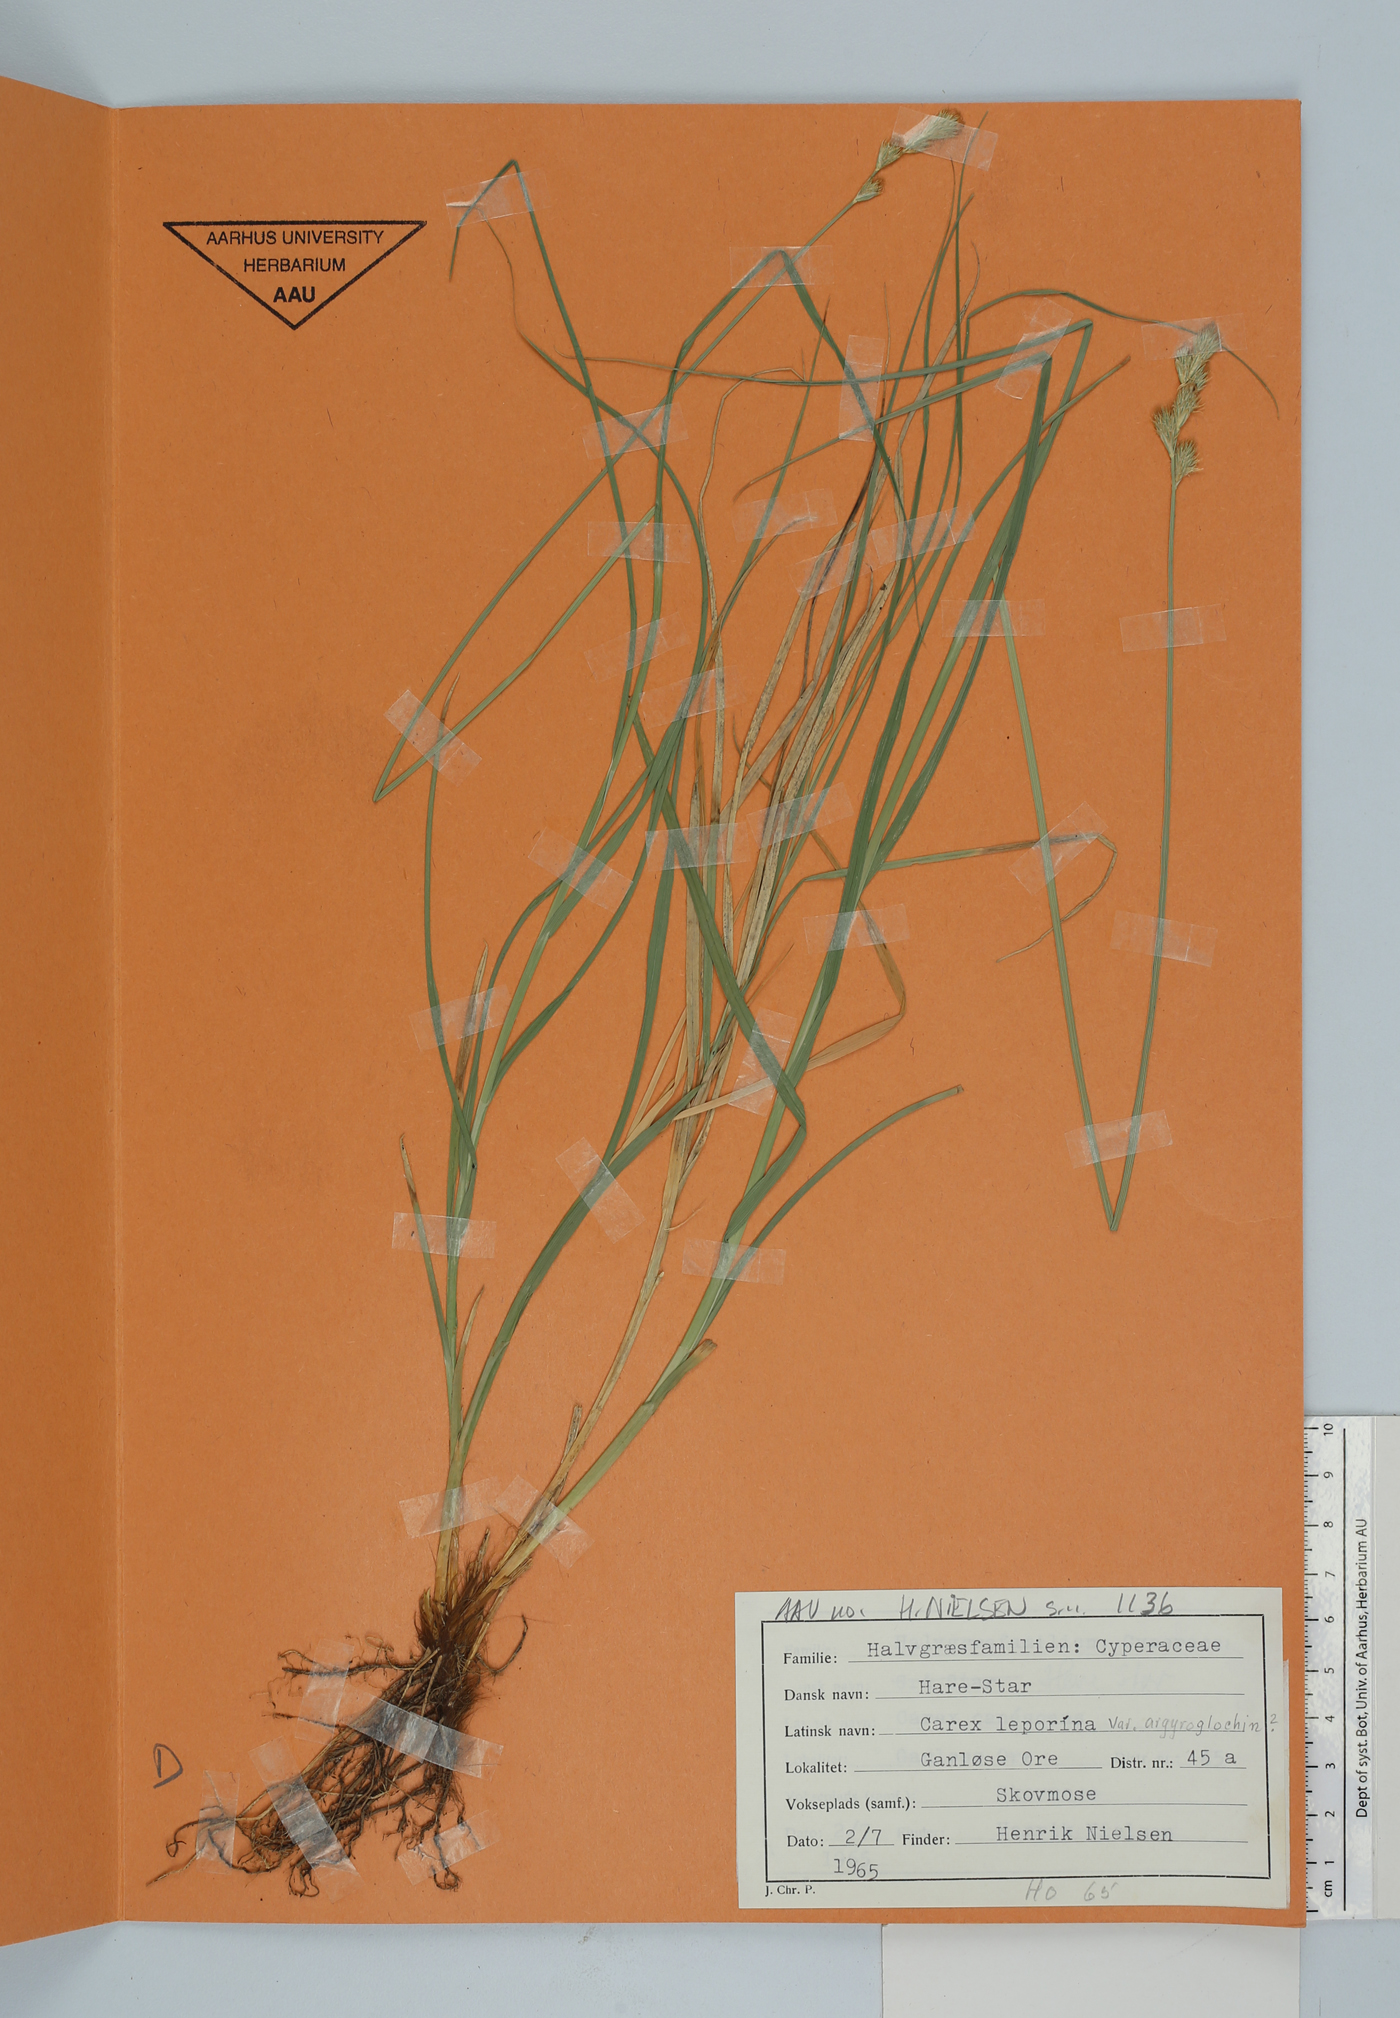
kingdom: Plantae
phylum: Tracheophyta
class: Liliopsida
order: Poales
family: Cyperaceae
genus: Carex
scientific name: Carex leporina
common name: Oval sedge
